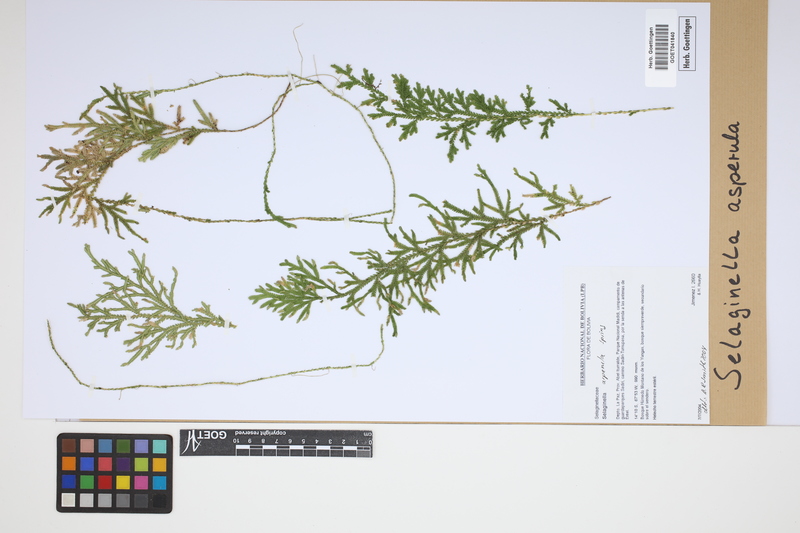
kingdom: Plantae
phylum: Tracheophyta
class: Lycopodiopsida
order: Selaginellales
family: Selaginellaceae
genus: Selaginella
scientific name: Selaginella asperula
